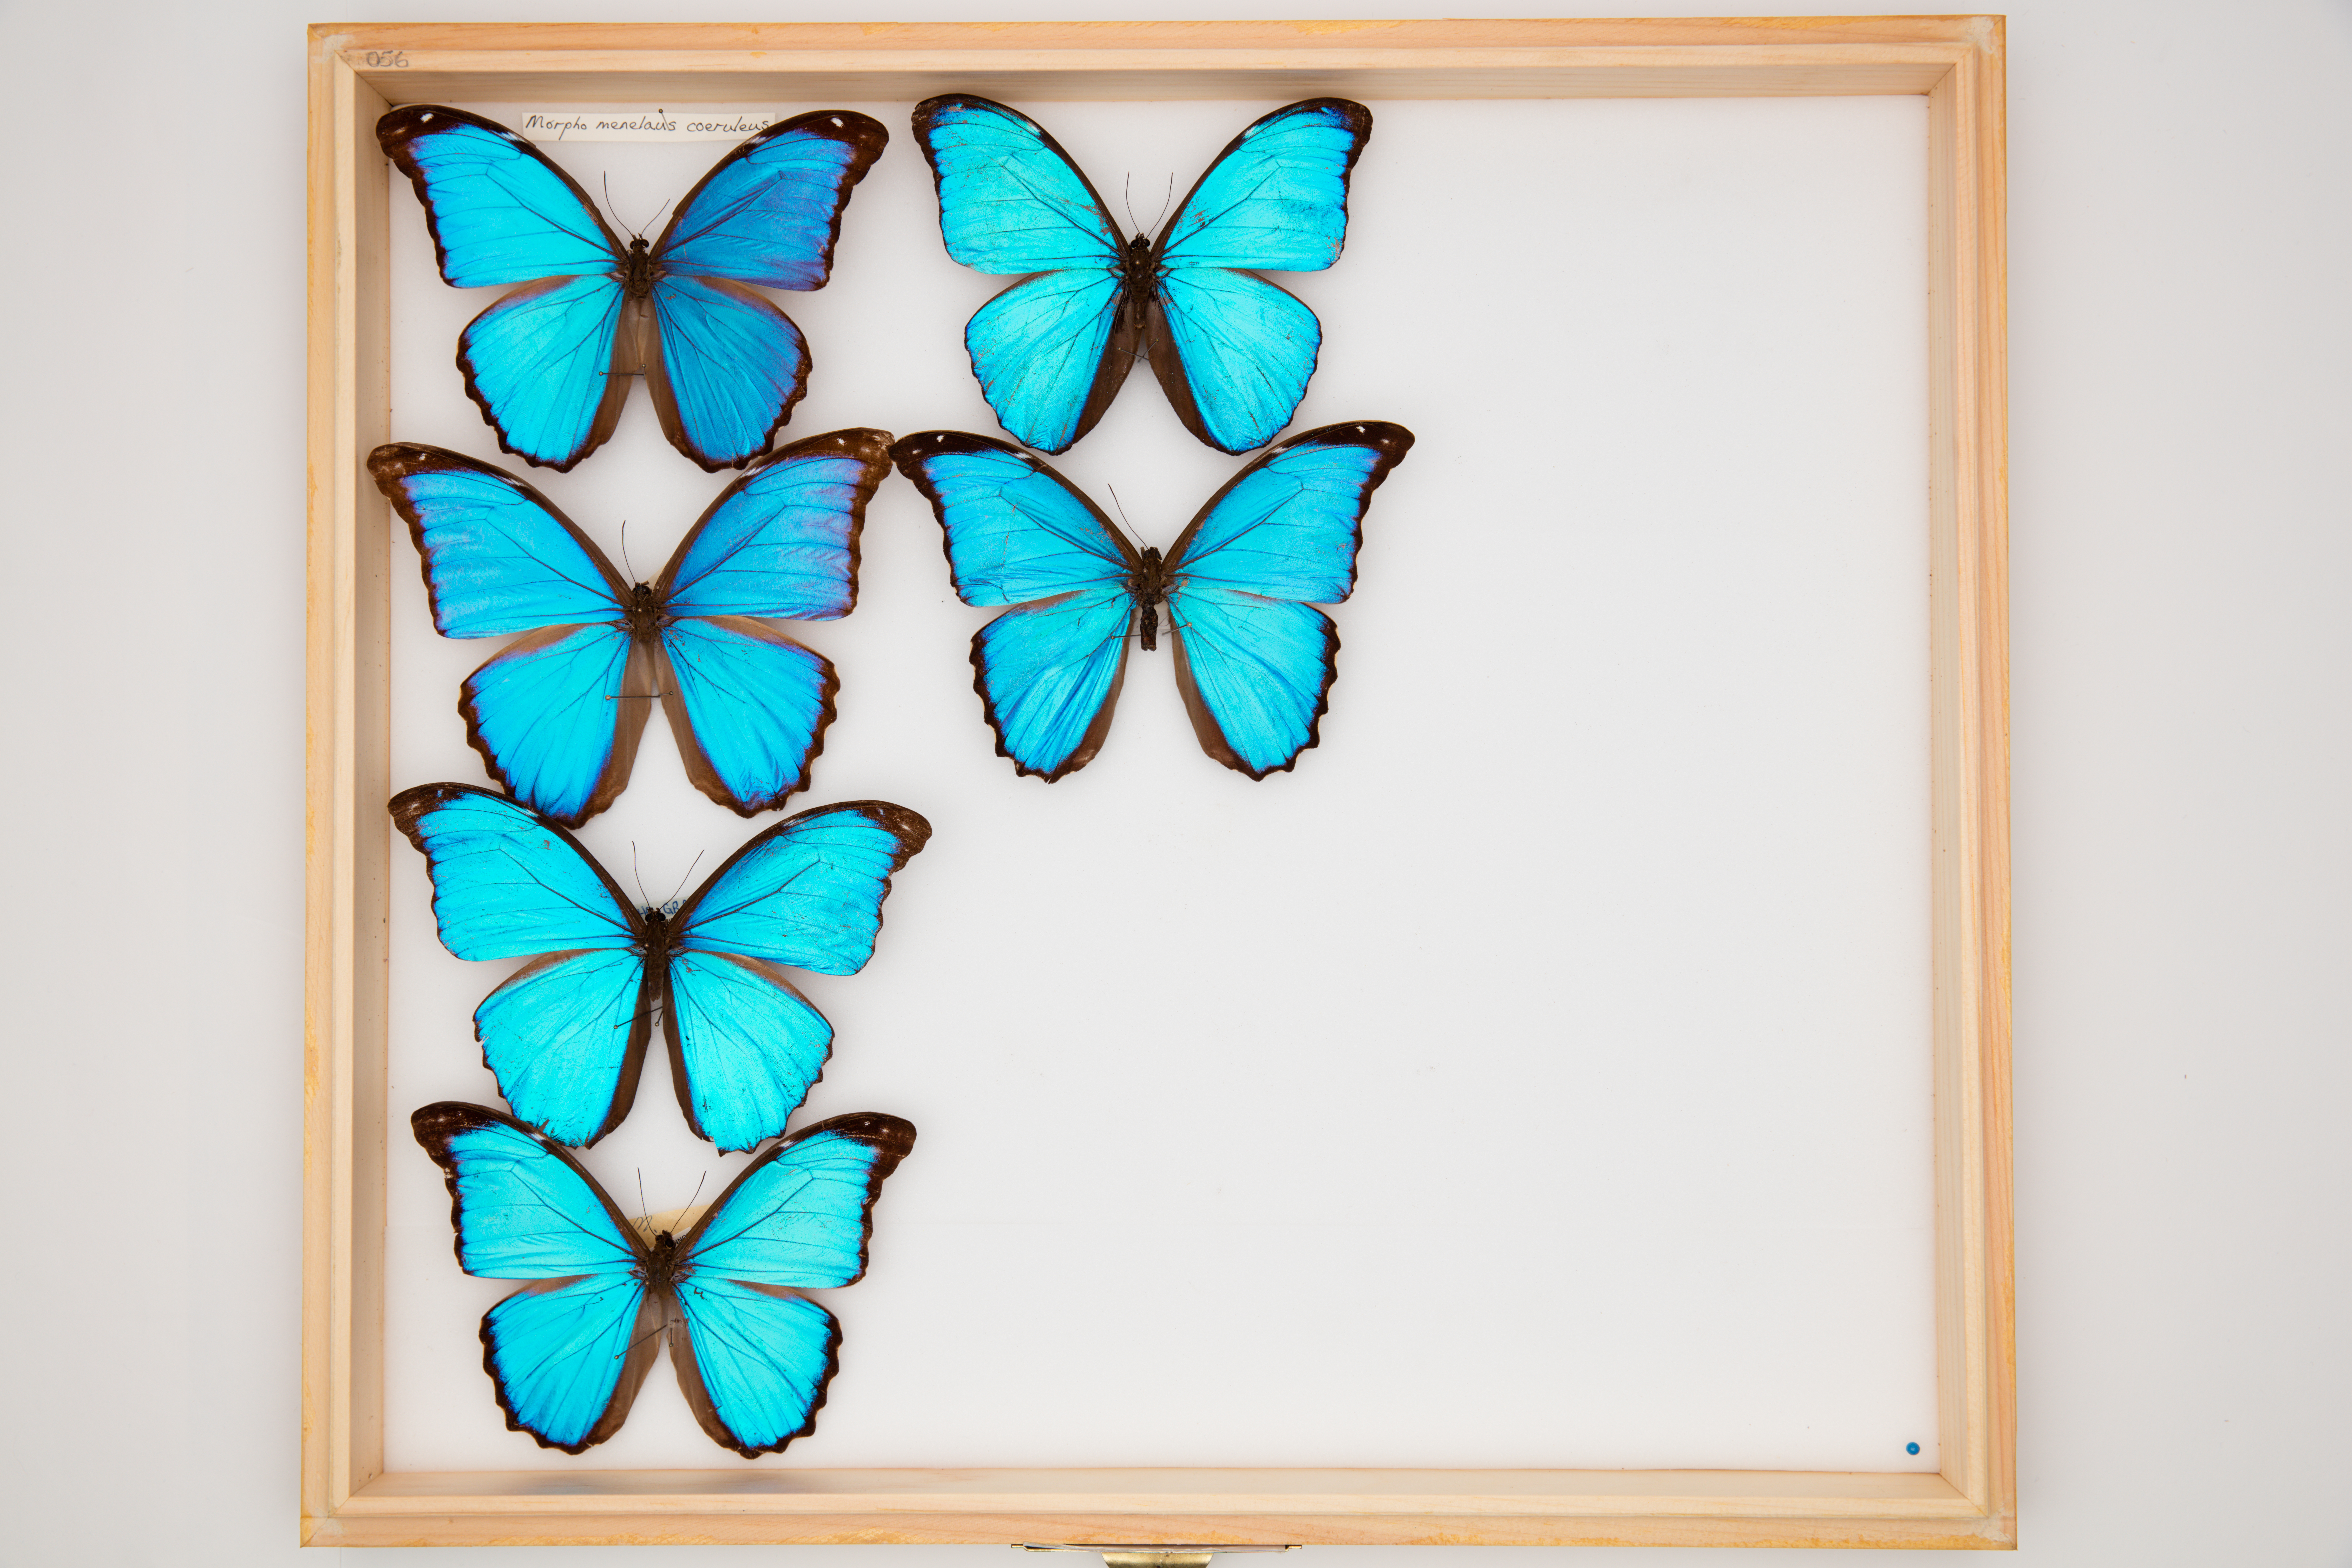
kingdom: Animalia
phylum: Arthropoda
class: Insecta
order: Lepidoptera
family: Nymphalidae
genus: Morpho
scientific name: Morpho menelaus
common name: Menelaus morpho
